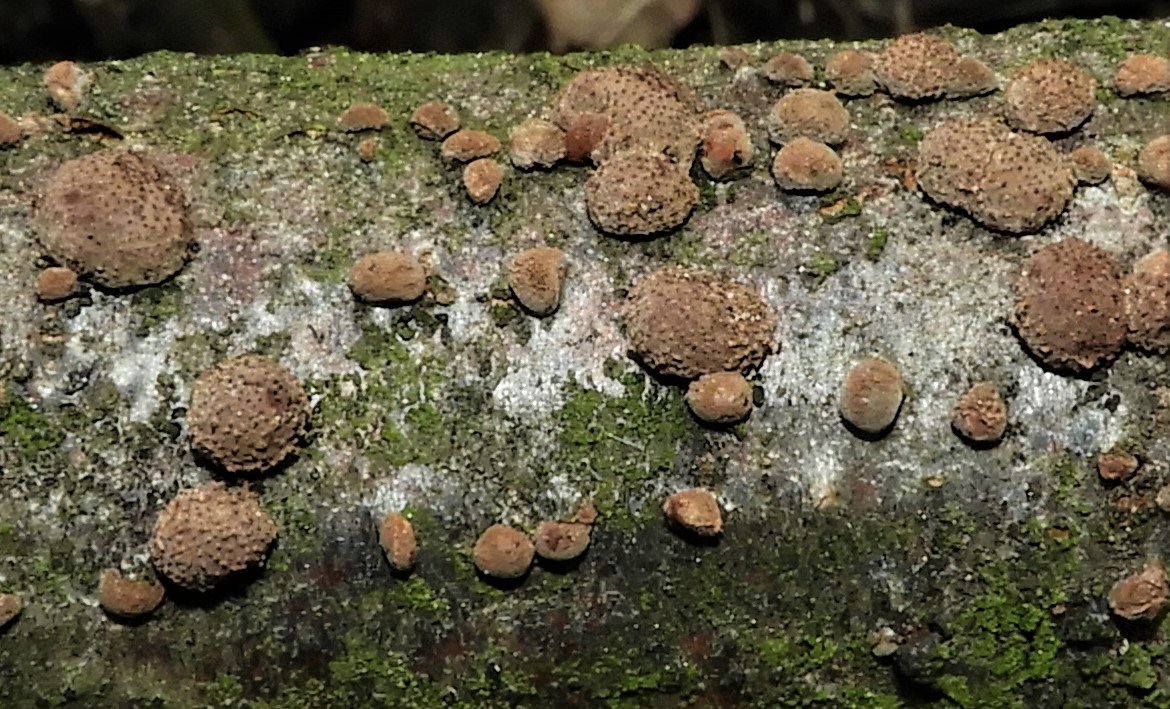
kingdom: Fungi
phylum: Ascomycota
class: Sordariomycetes
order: Xylariales
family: Hypoxylaceae
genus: Hypoxylon
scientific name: Hypoxylon fragiforme
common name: kuljordbær
